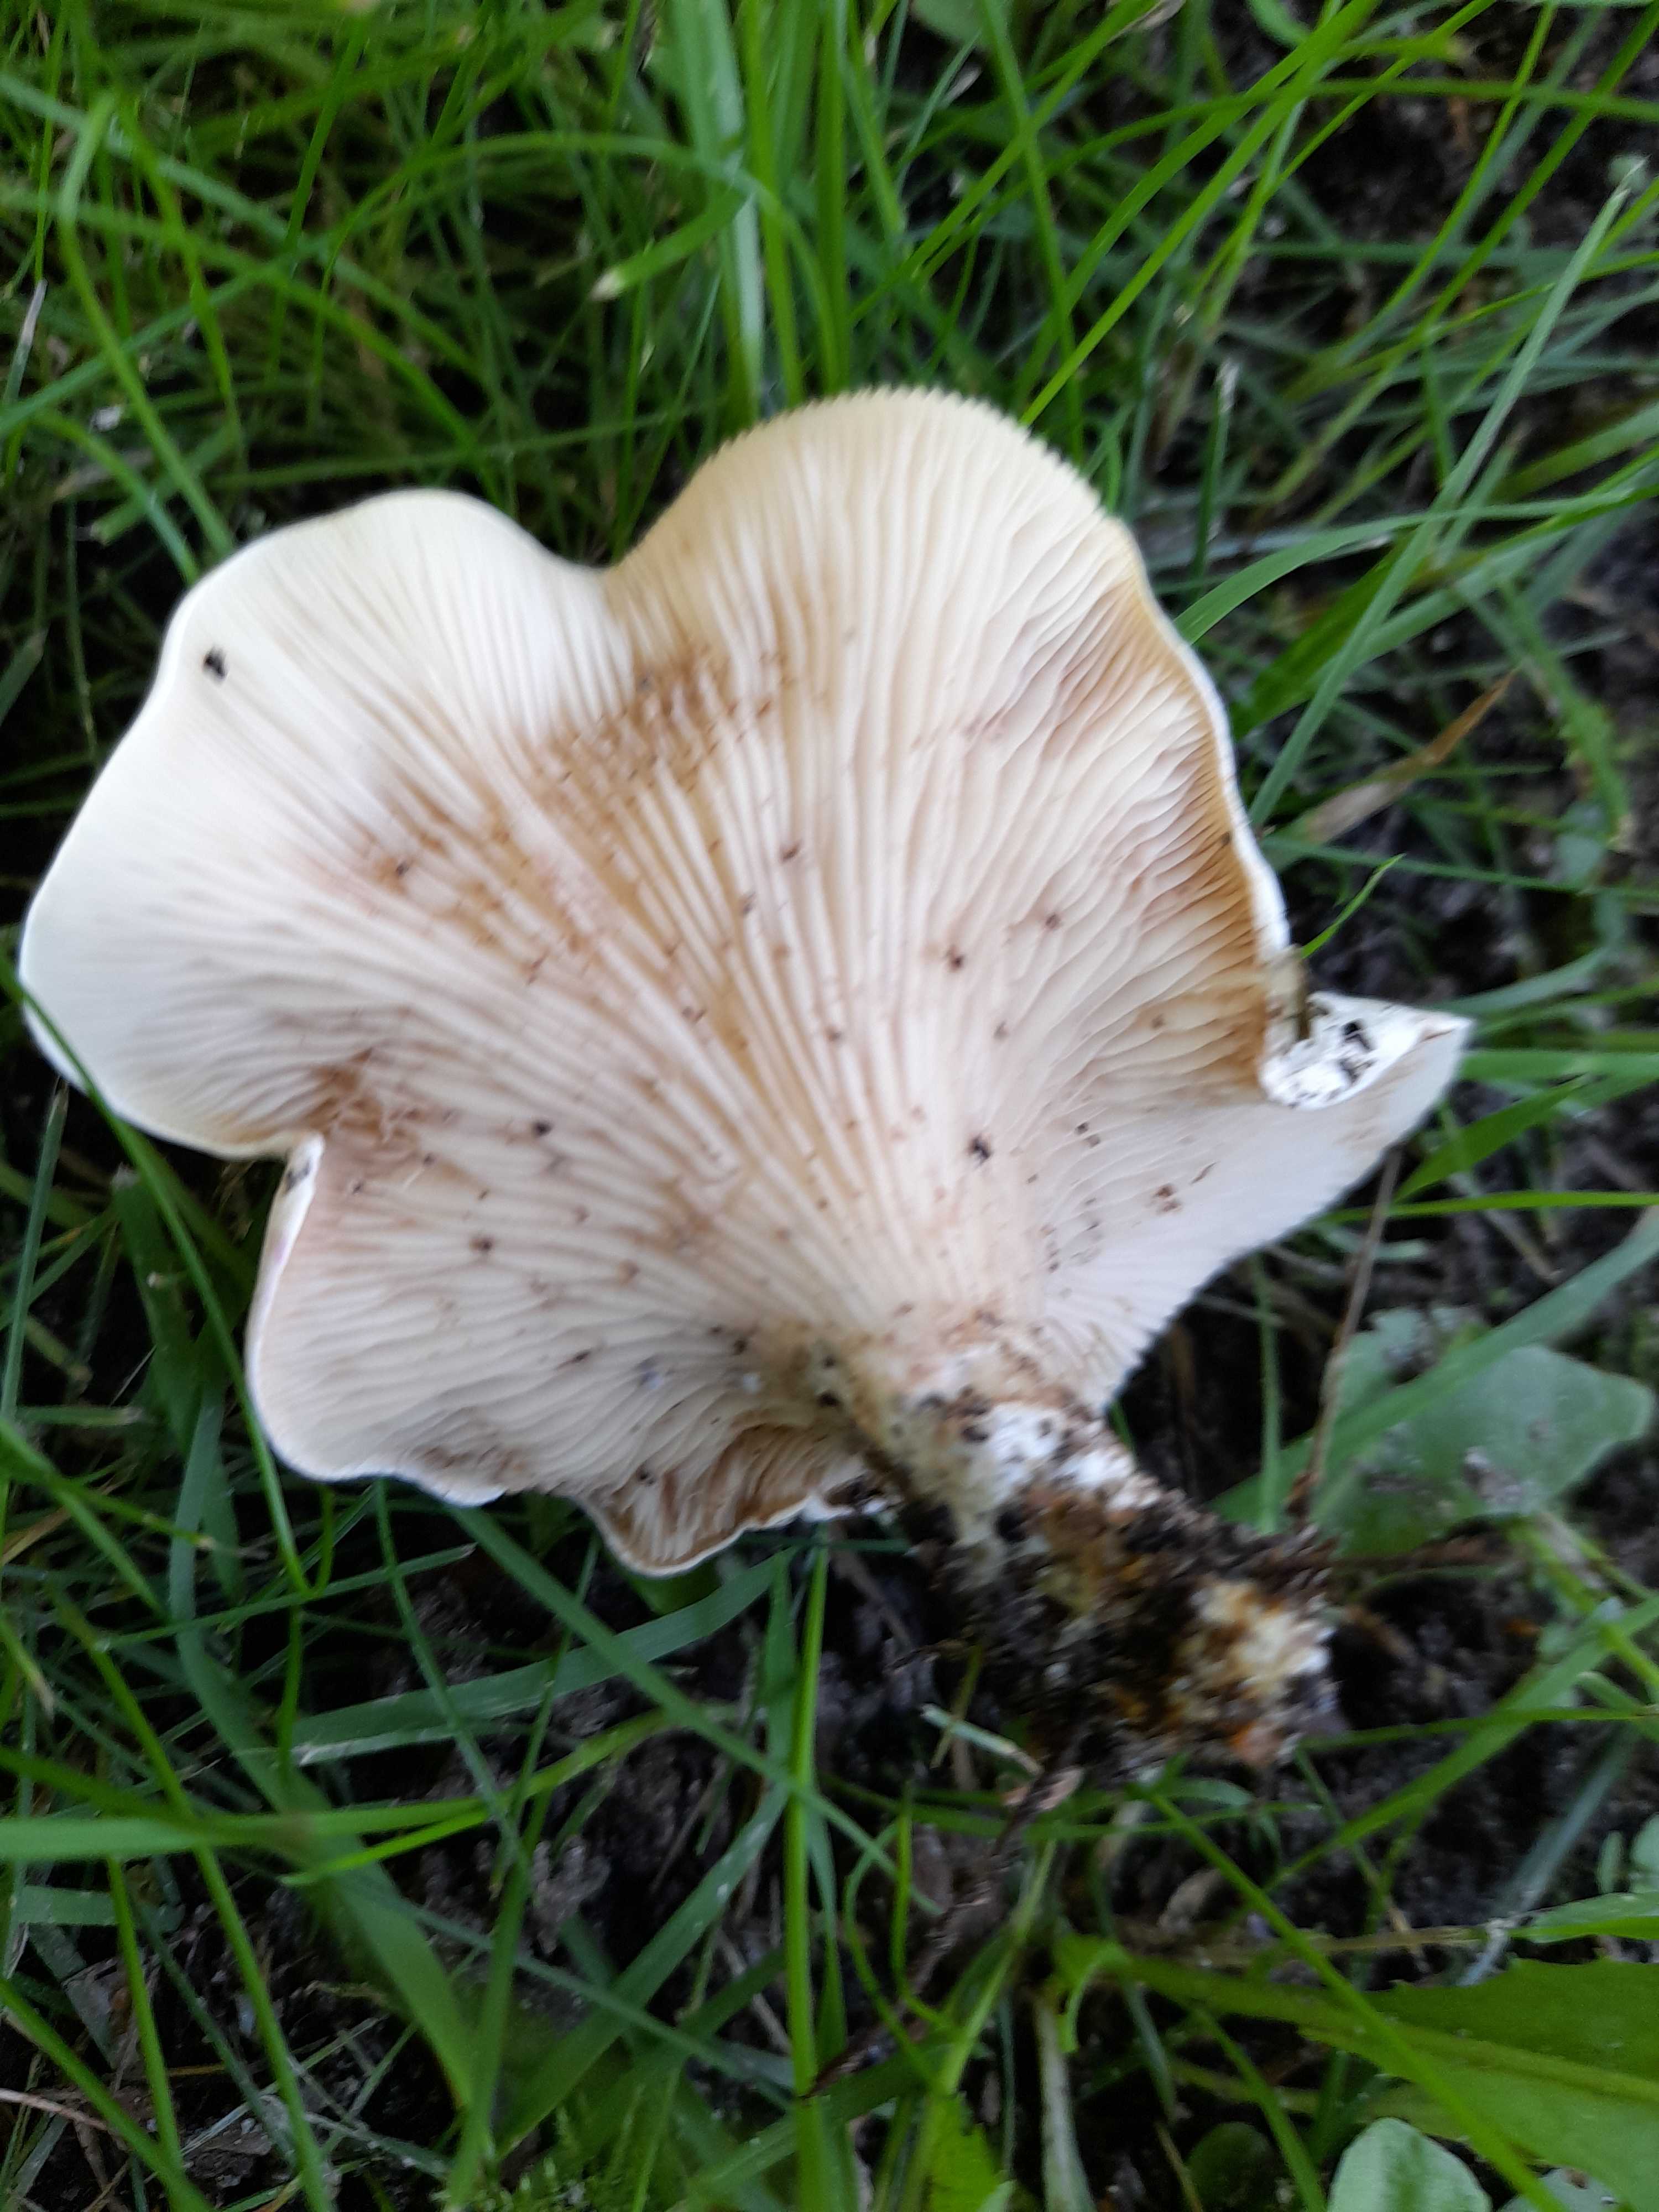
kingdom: Fungi
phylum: Basidiomycota
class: Agaricomycetes
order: Agaricales
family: Entolomataceae
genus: Clitopilus
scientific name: Clitopilus prunulus
